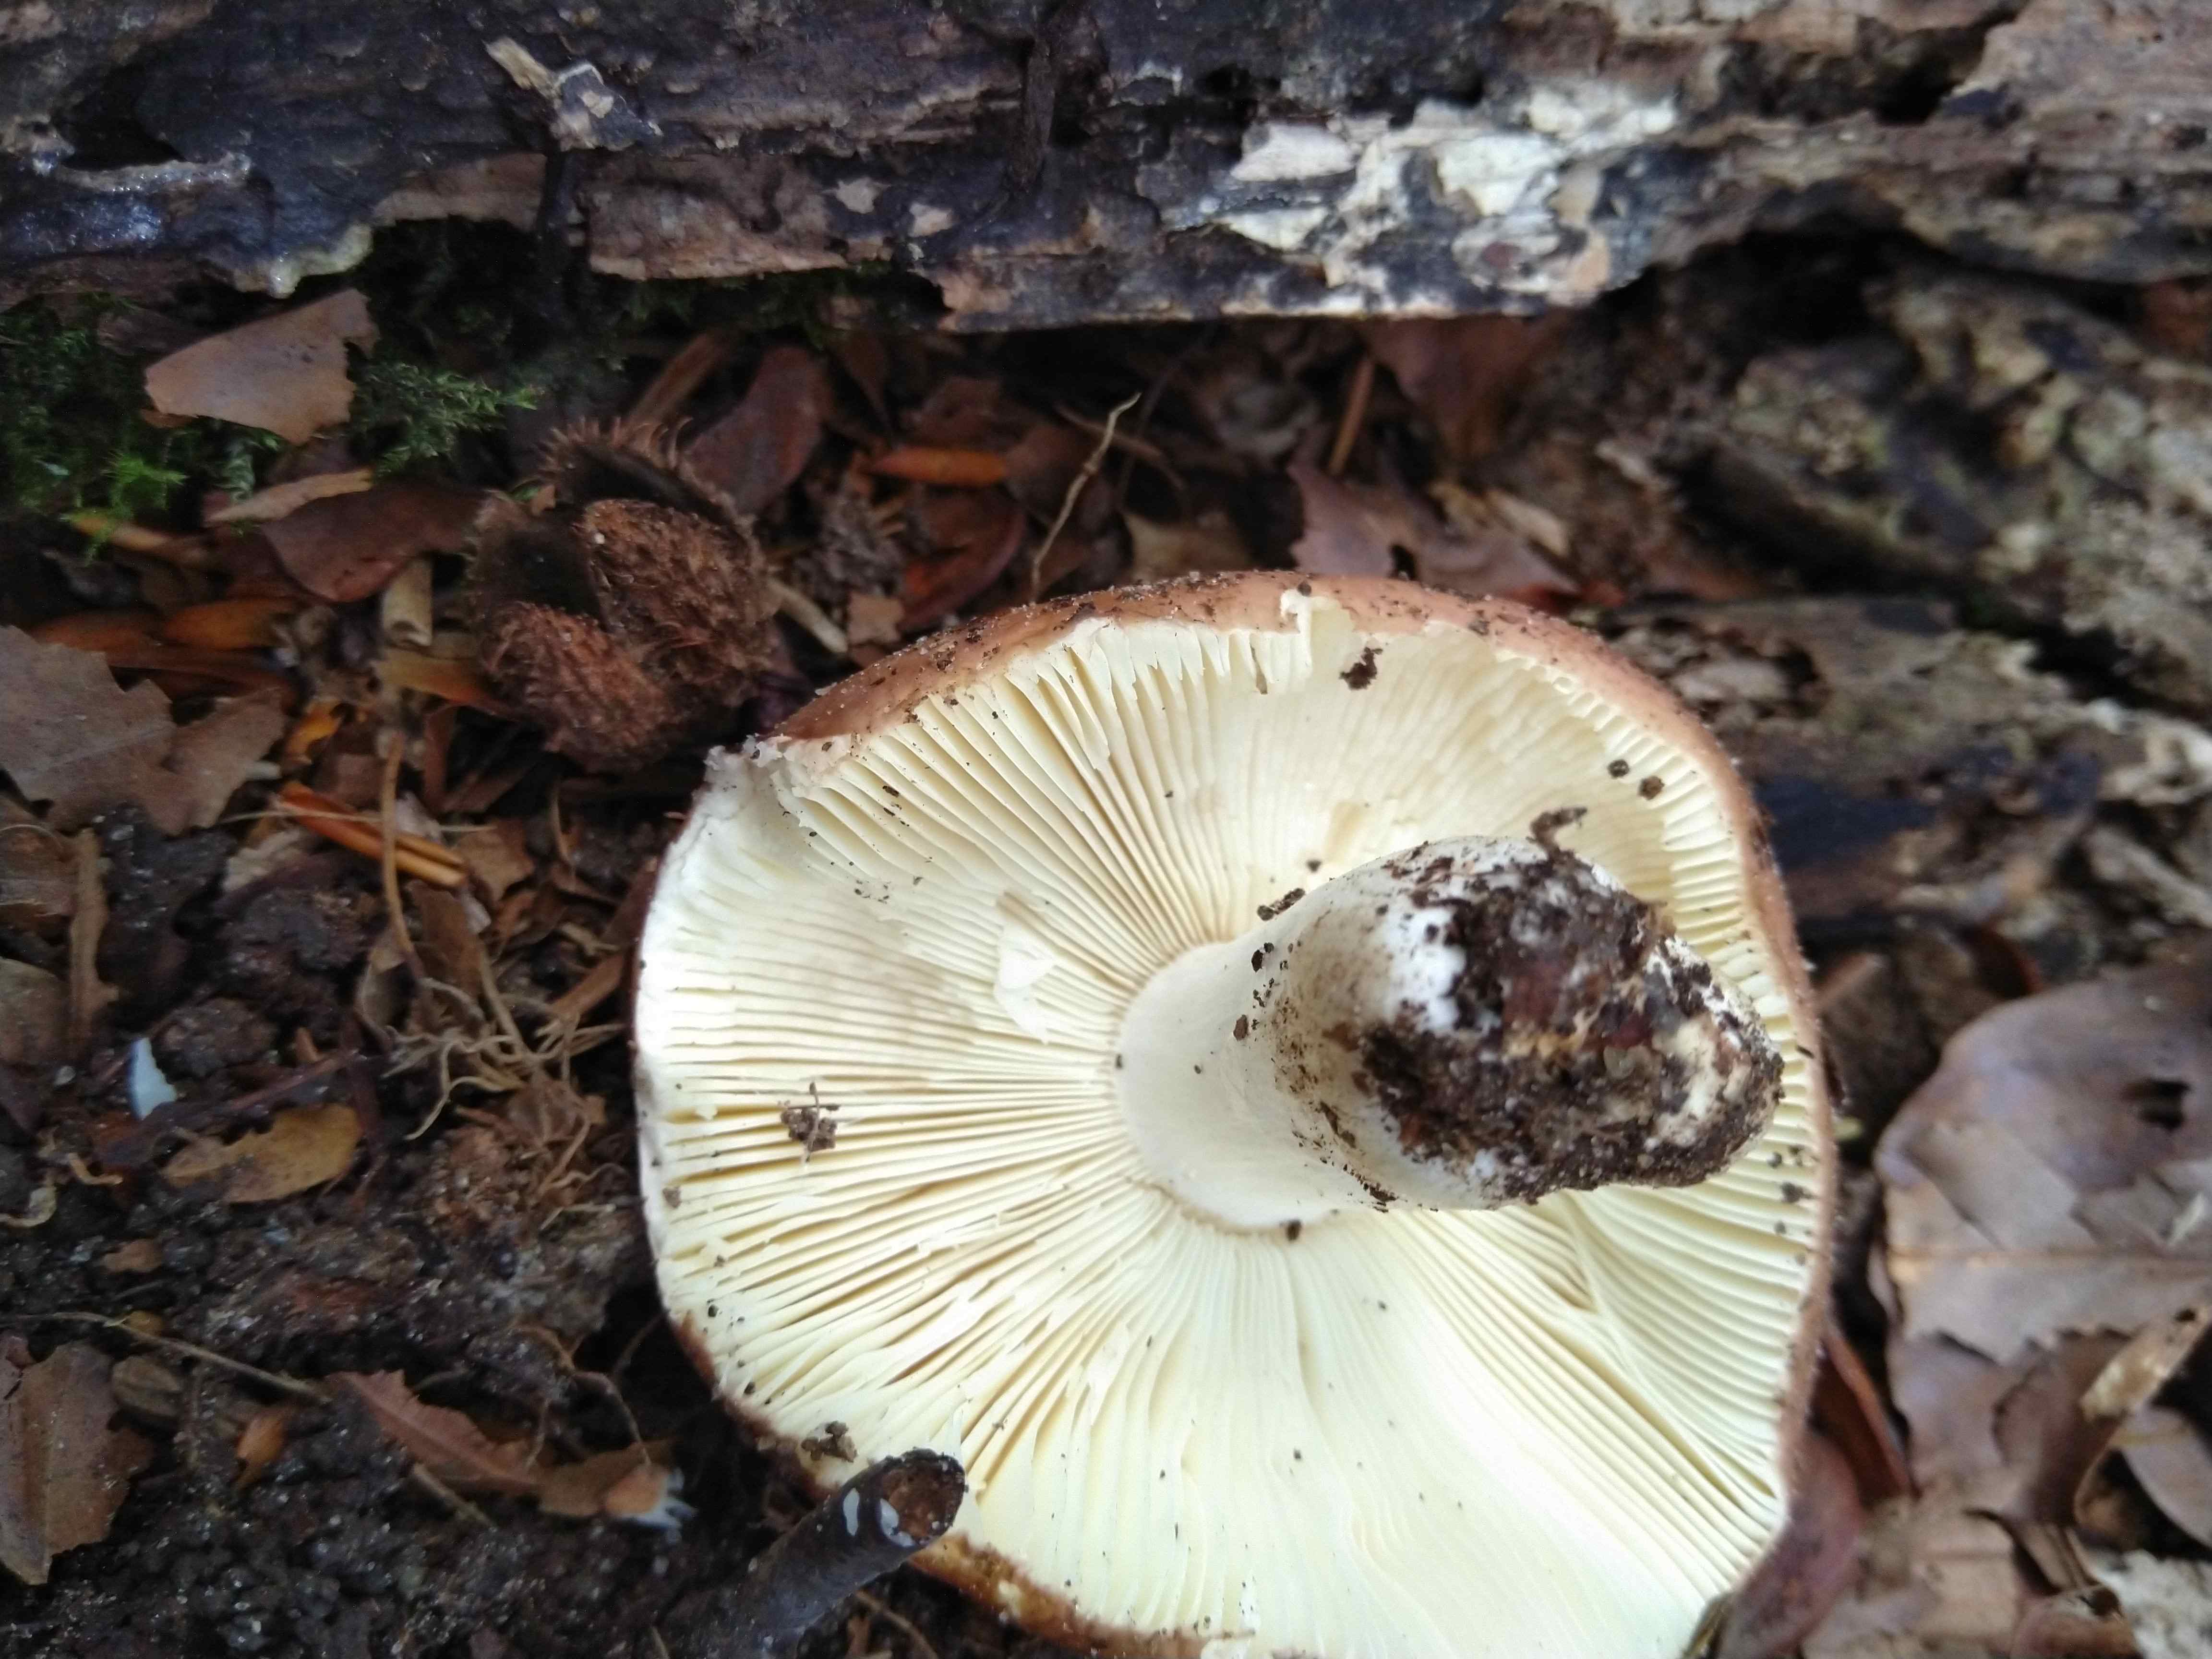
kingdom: Fungi
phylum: Basidiomycota
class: Agaricomycetes
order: Russulales
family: Russulaceae
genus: Russula
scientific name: Russula cyanoxantha
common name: broget skørhat
